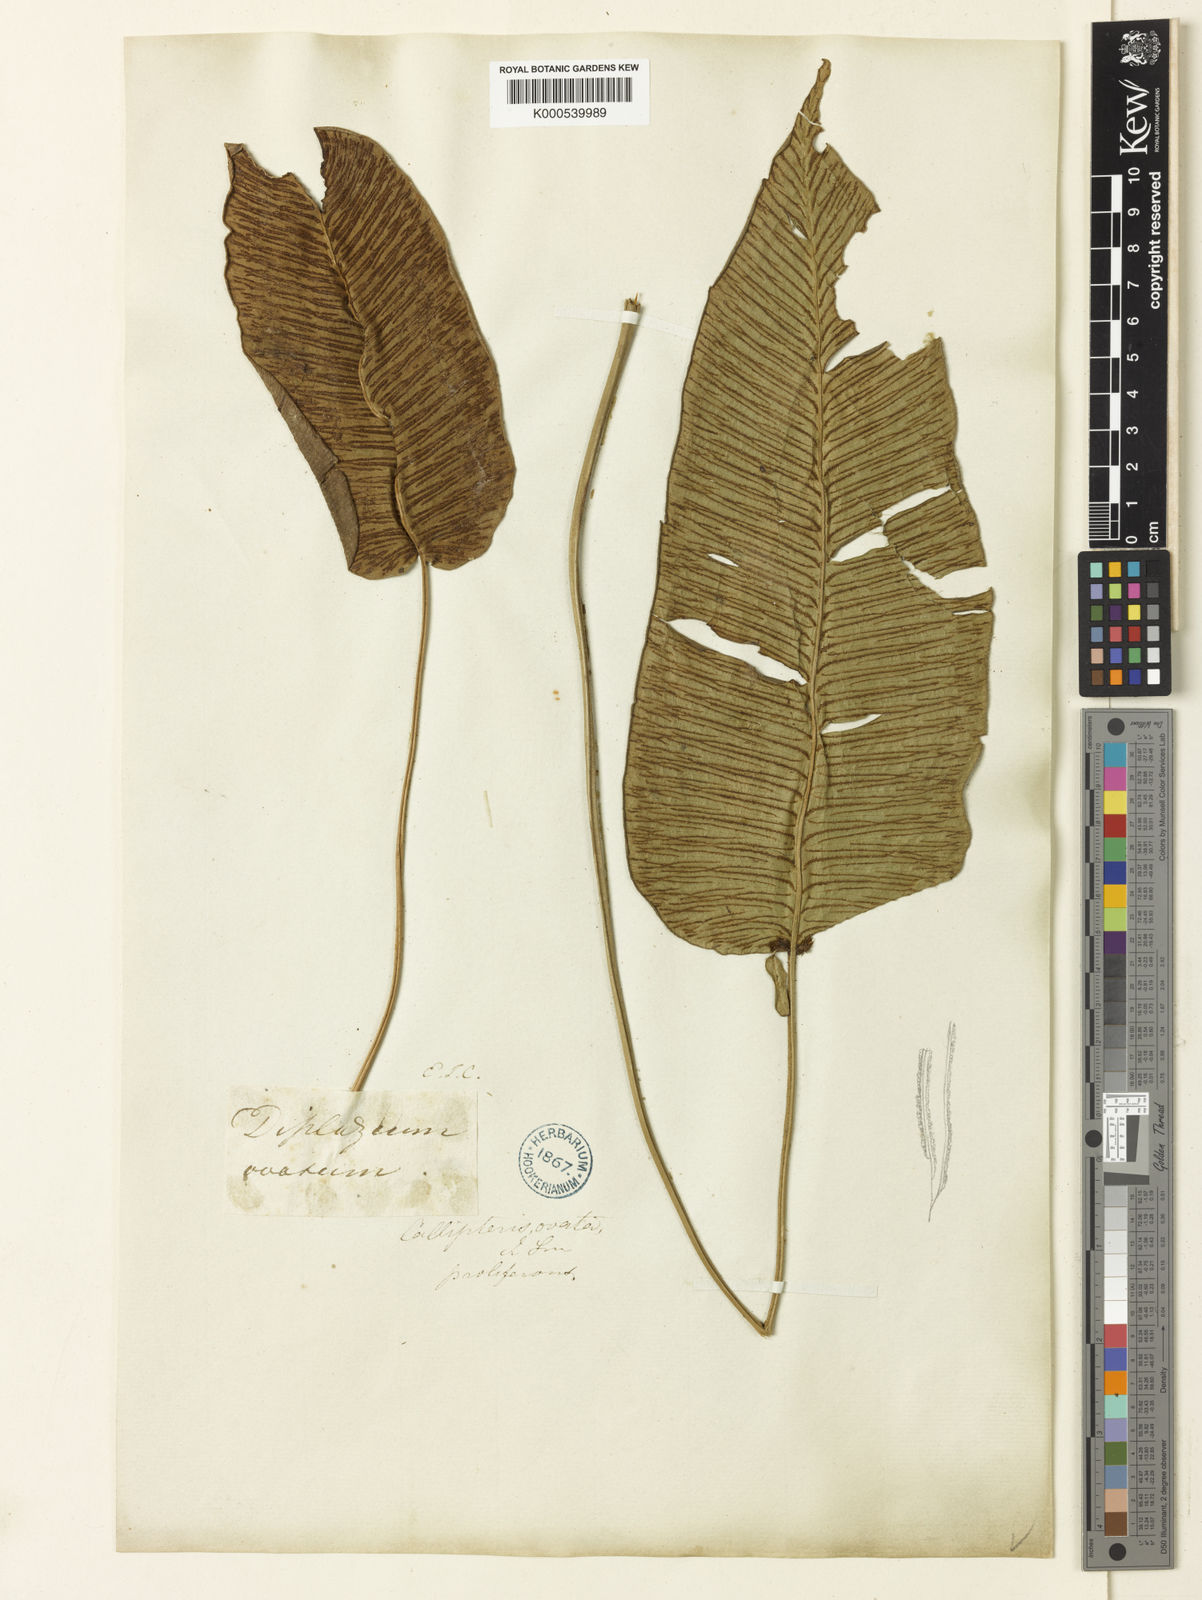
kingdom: Plantae
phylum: Tracheophyta
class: Polypodiopsida
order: Polypodiales
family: Athyriaceae
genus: Diplazium
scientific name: Diplazium cordifolium
